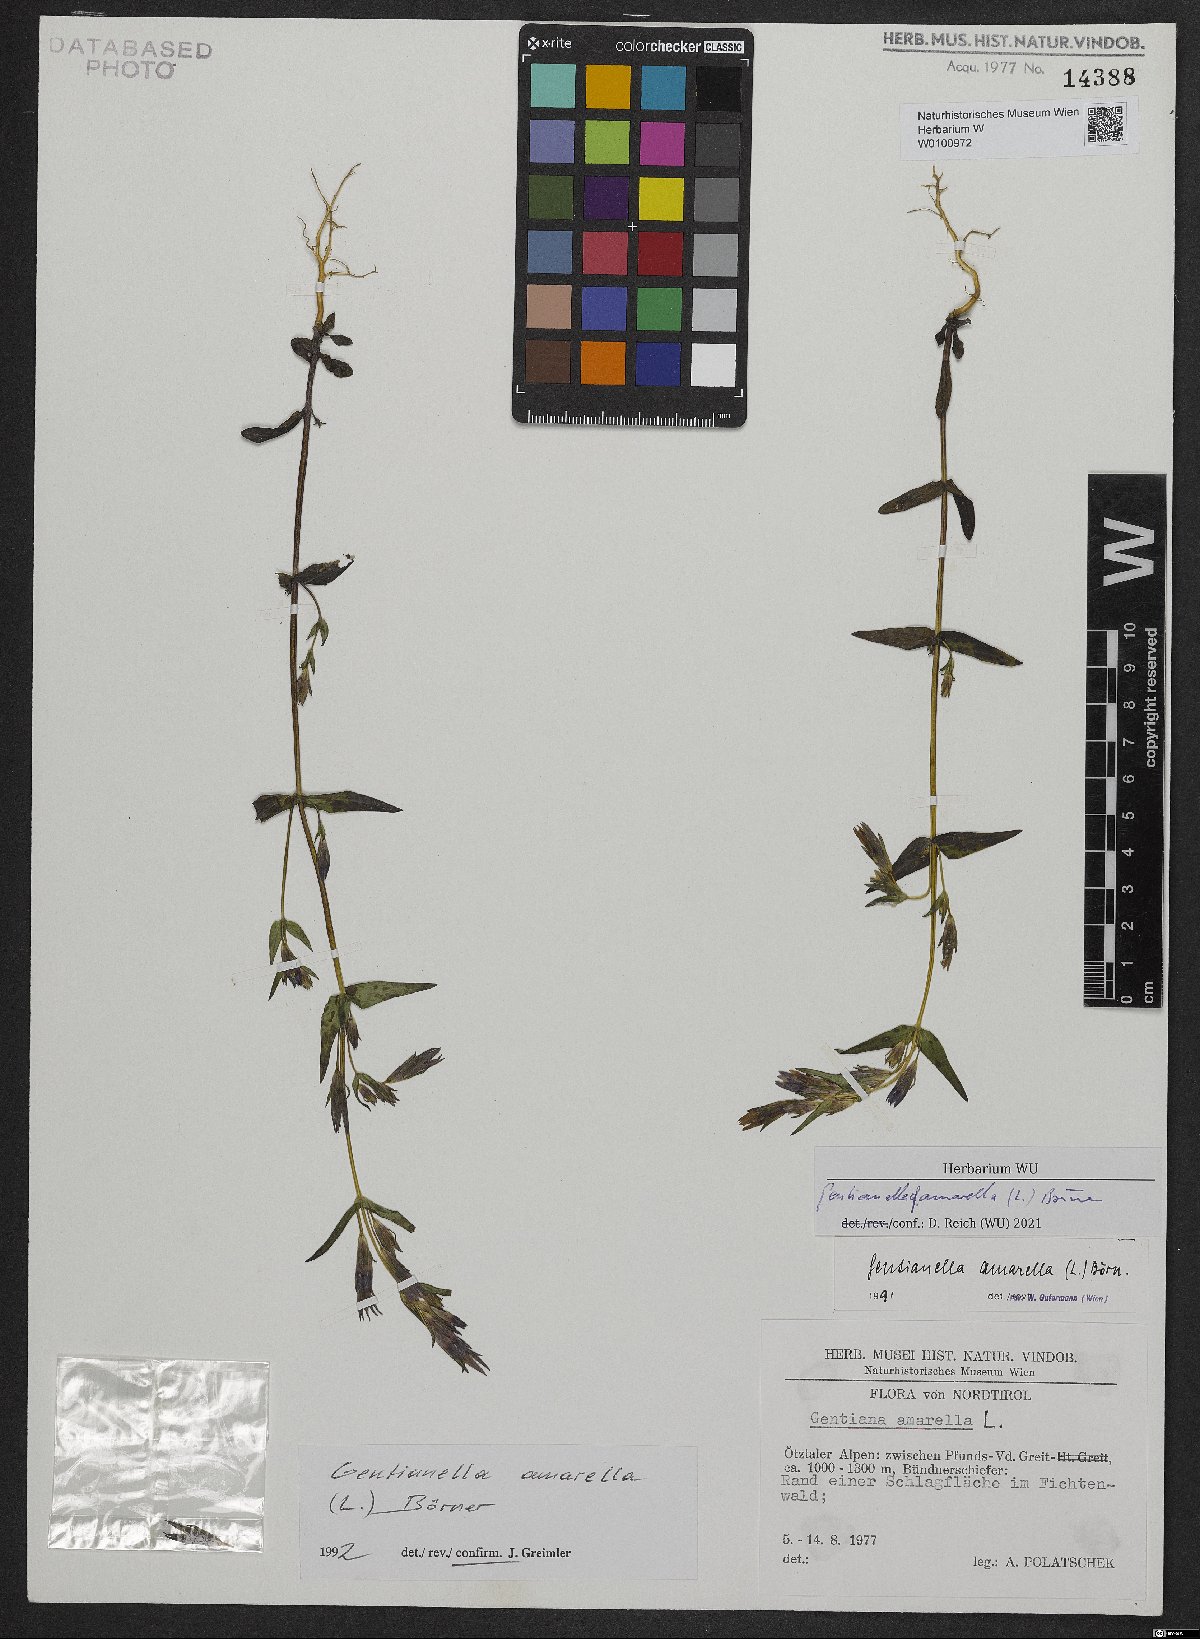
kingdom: Plantae
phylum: Tracheophyta
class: Magnoliopsida
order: Gentianales
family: Gentianaceae
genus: Gentianella
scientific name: Gentianella amarella
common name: Autumn gentian
